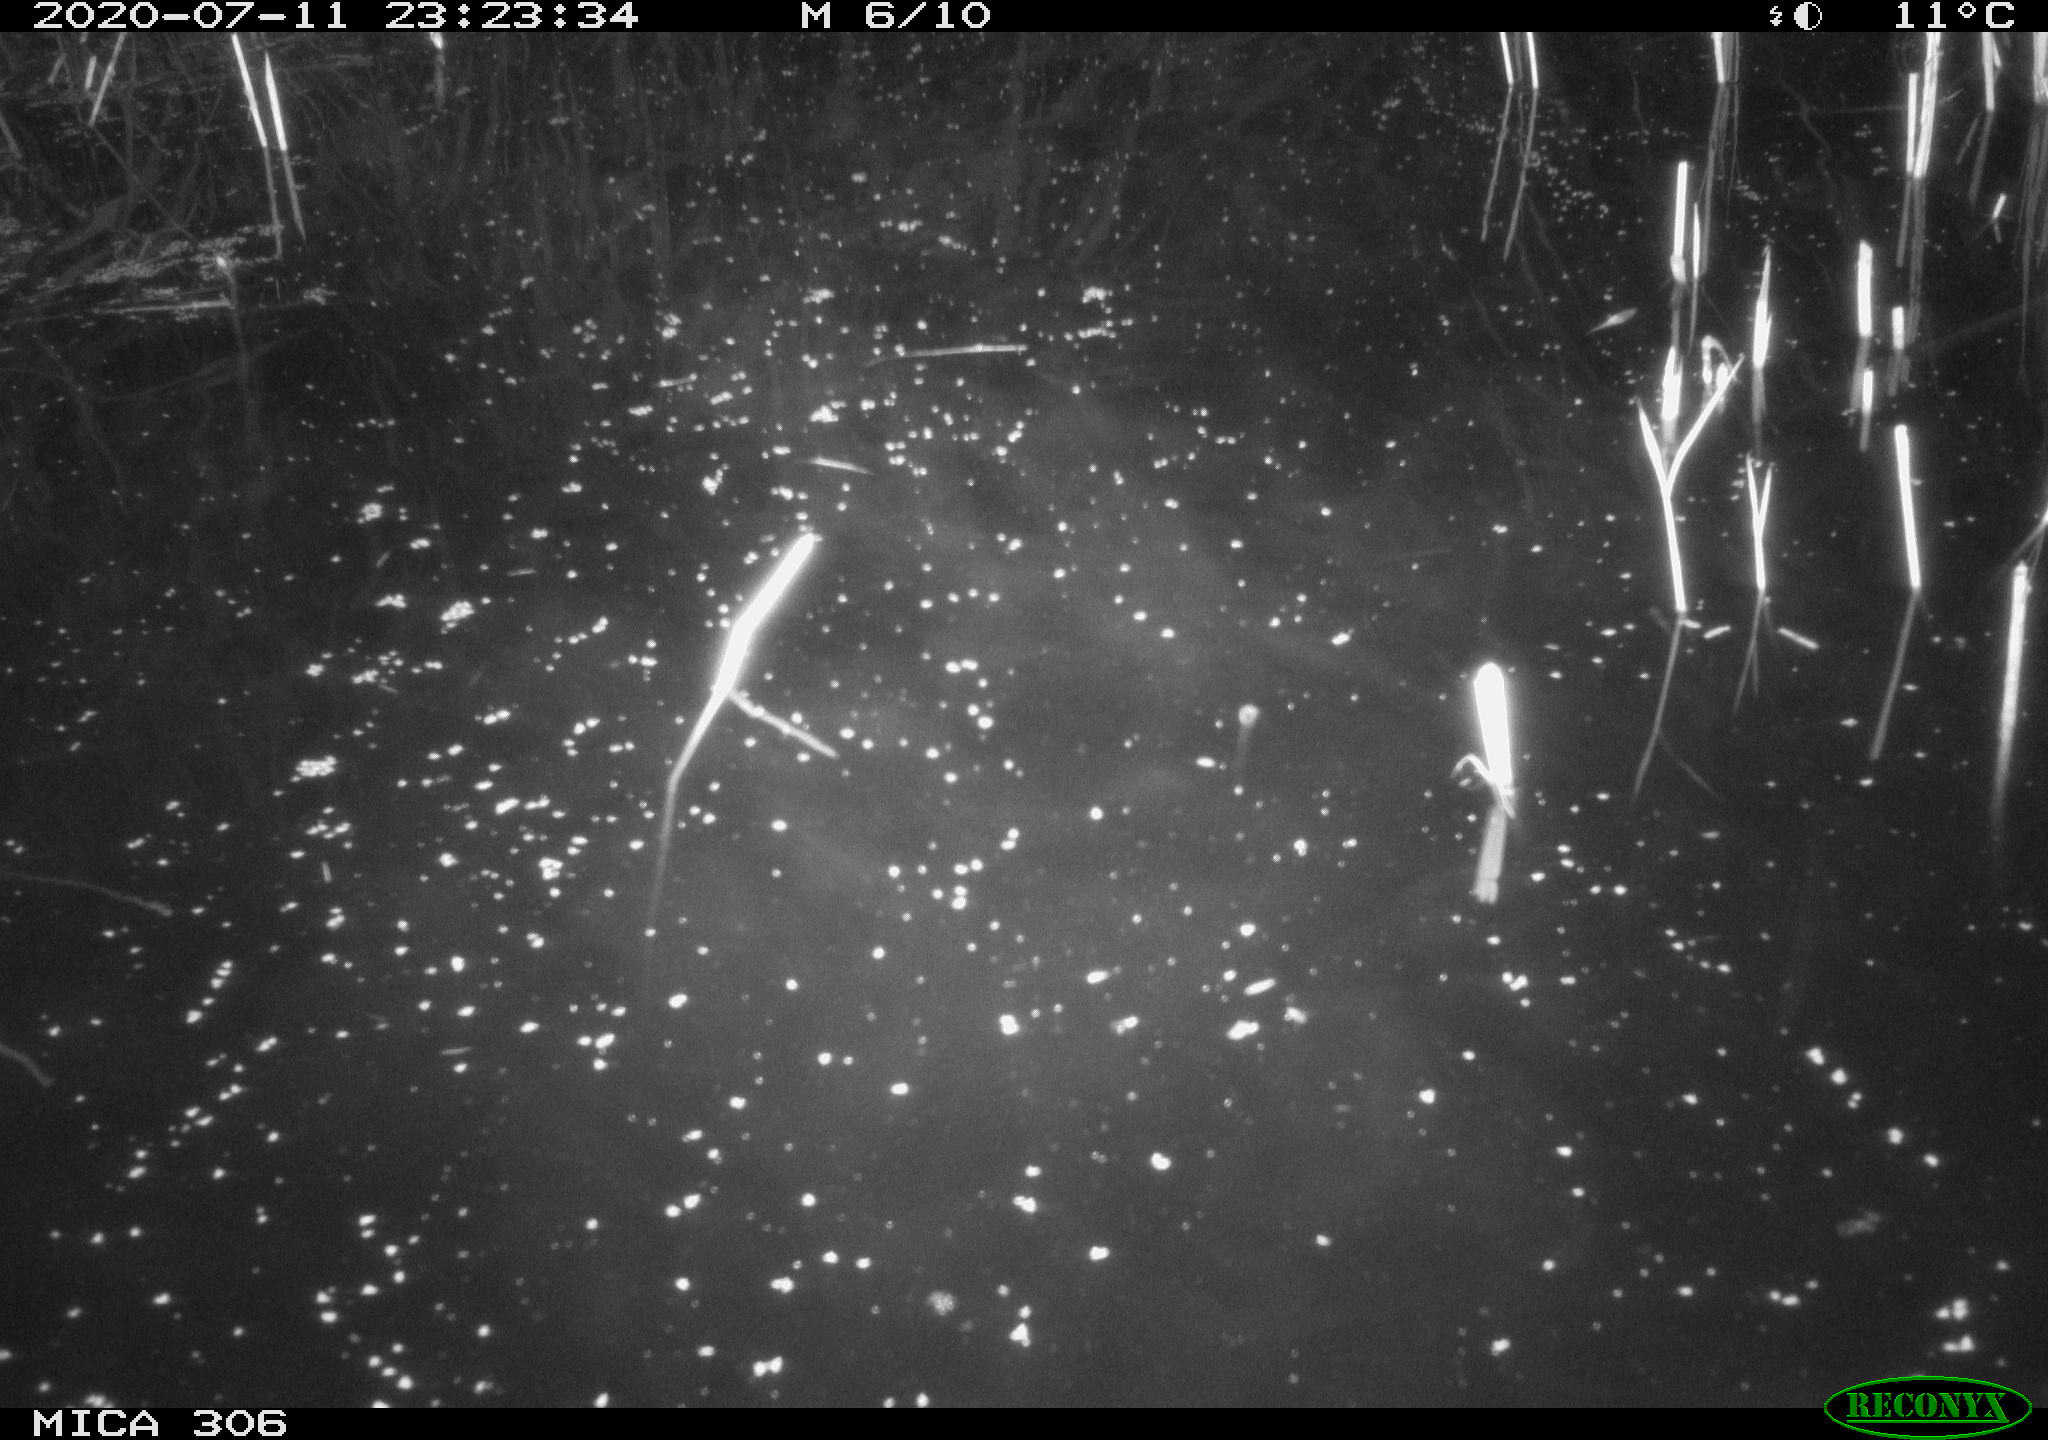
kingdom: Animalia
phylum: Chordata
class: Mammalia
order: Rodentia
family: Cricetidae
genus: Ondatra
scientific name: Ondatra zibethicus
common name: Muskrat
